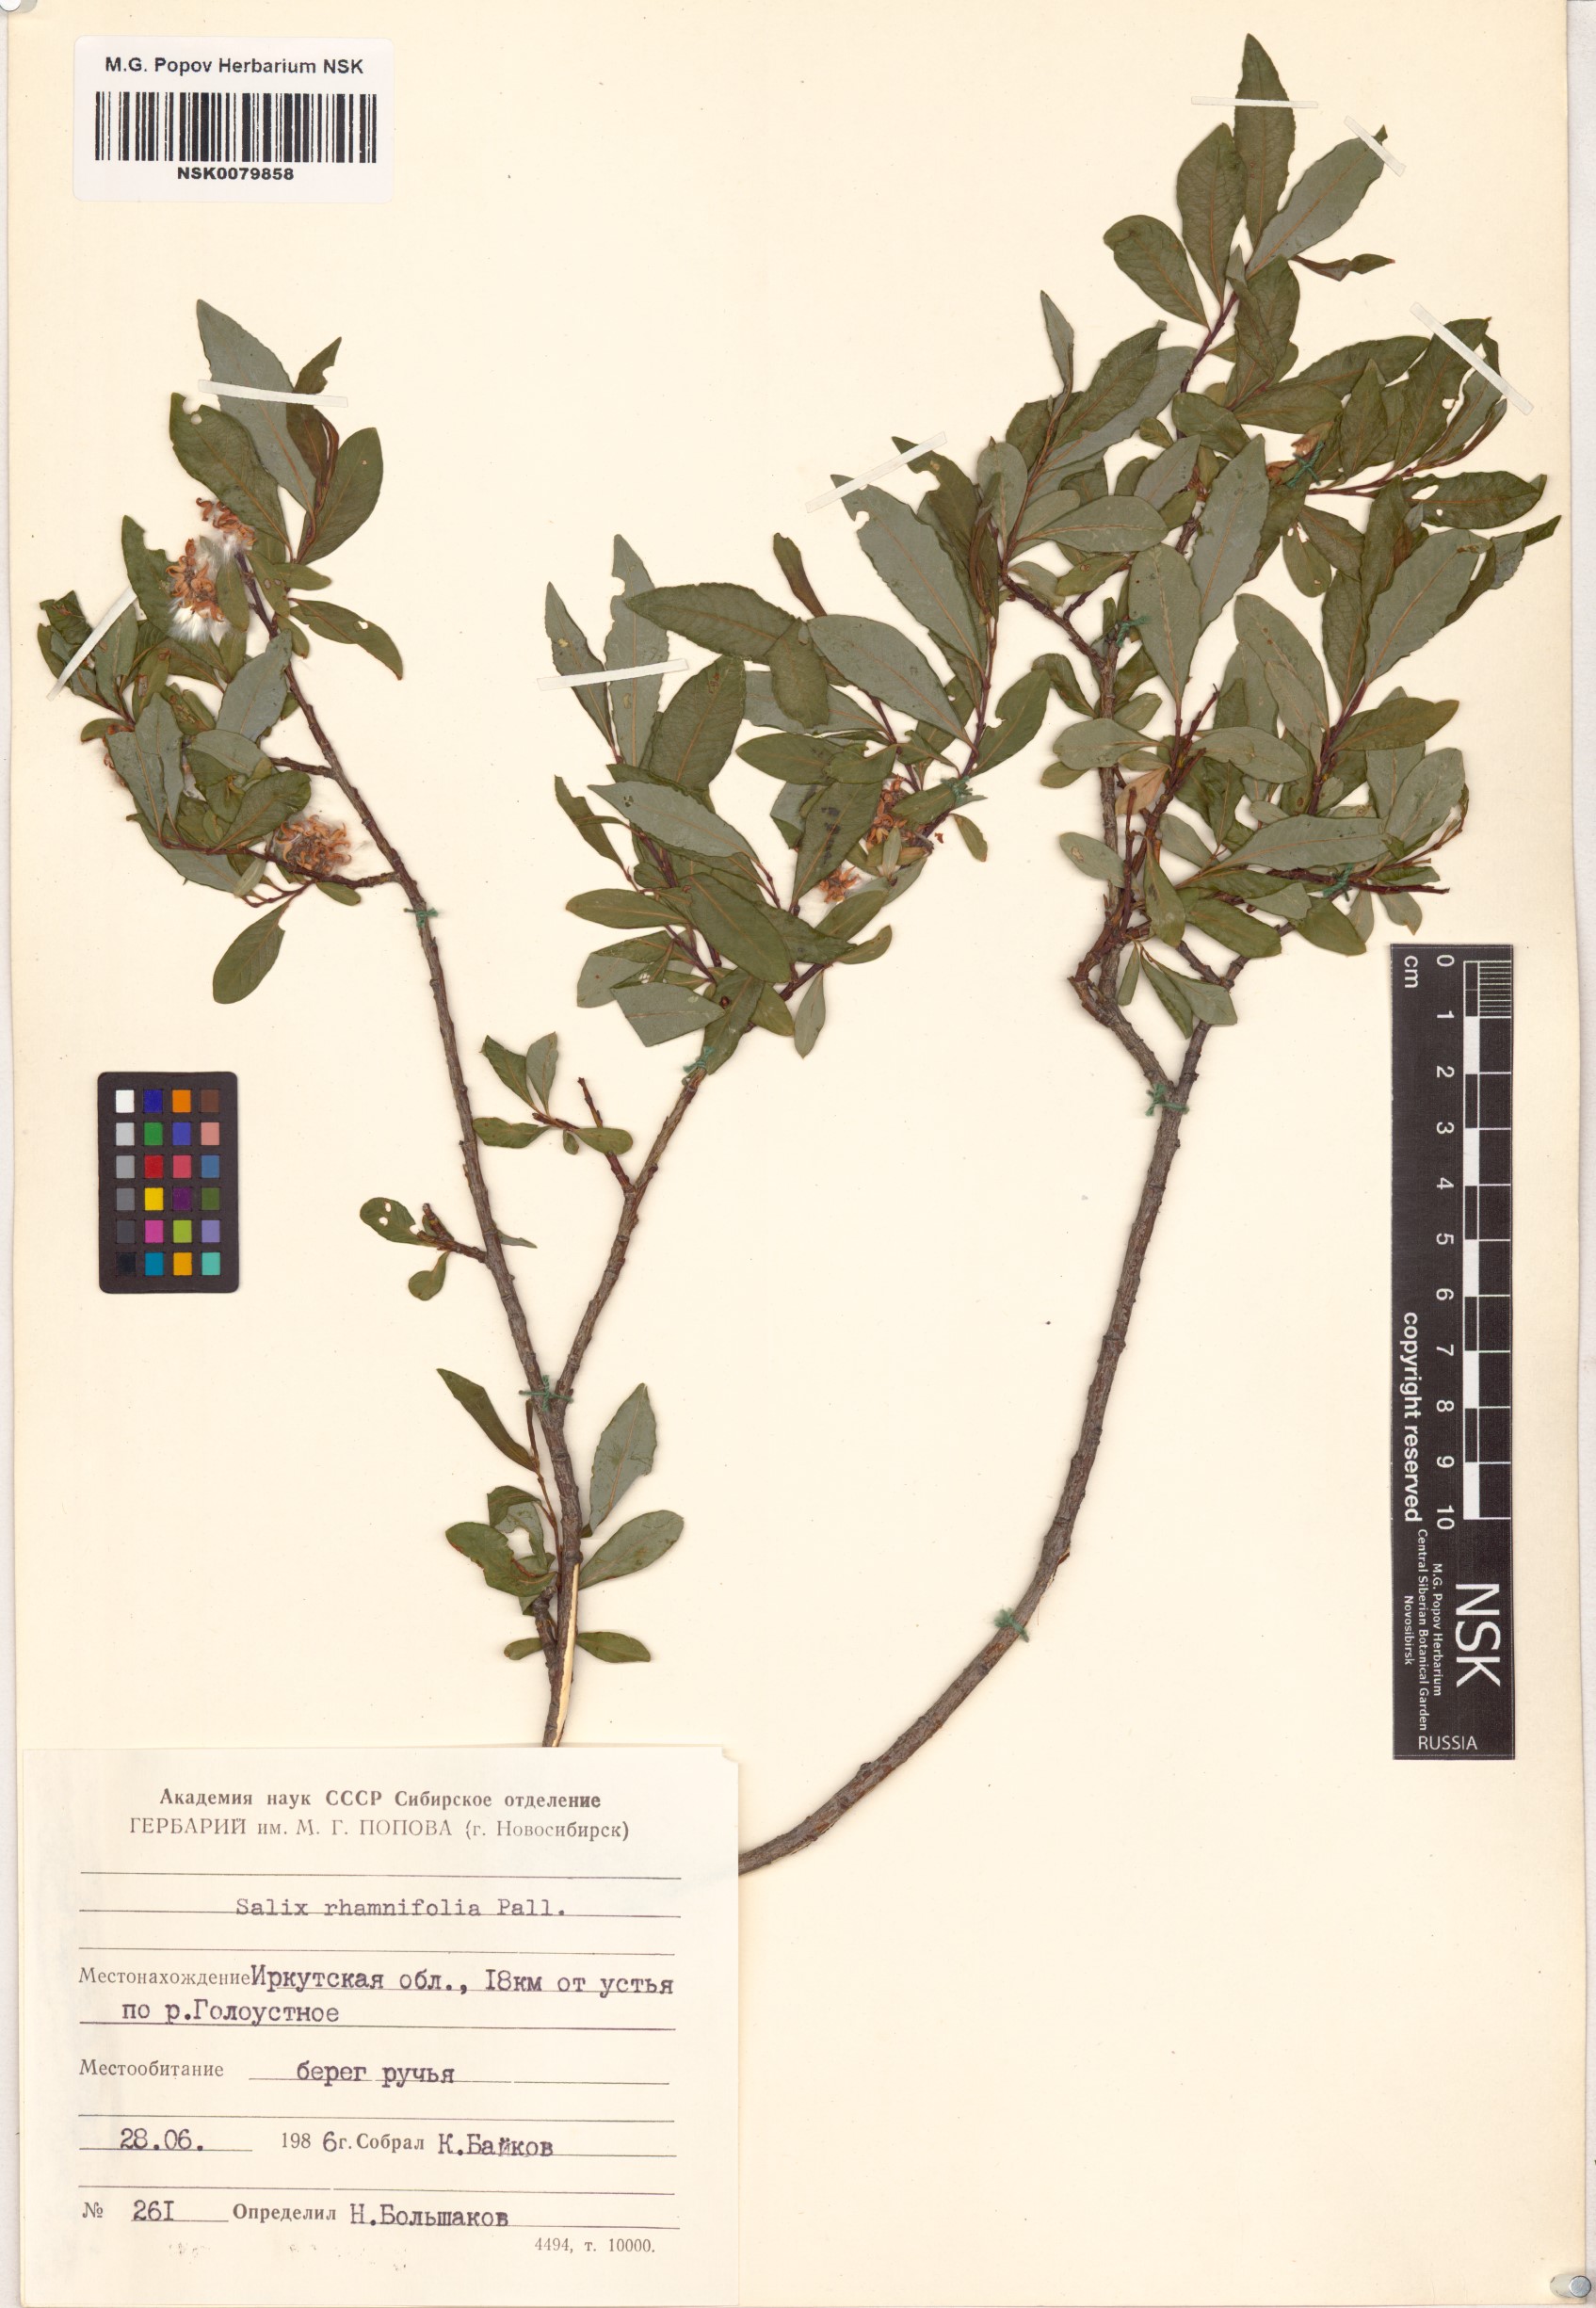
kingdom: Plantae
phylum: Tracheophyta
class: Magnoliopsida
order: Malpighiales
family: Salicaceae
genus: Salix
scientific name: Salix rhamnifolia
